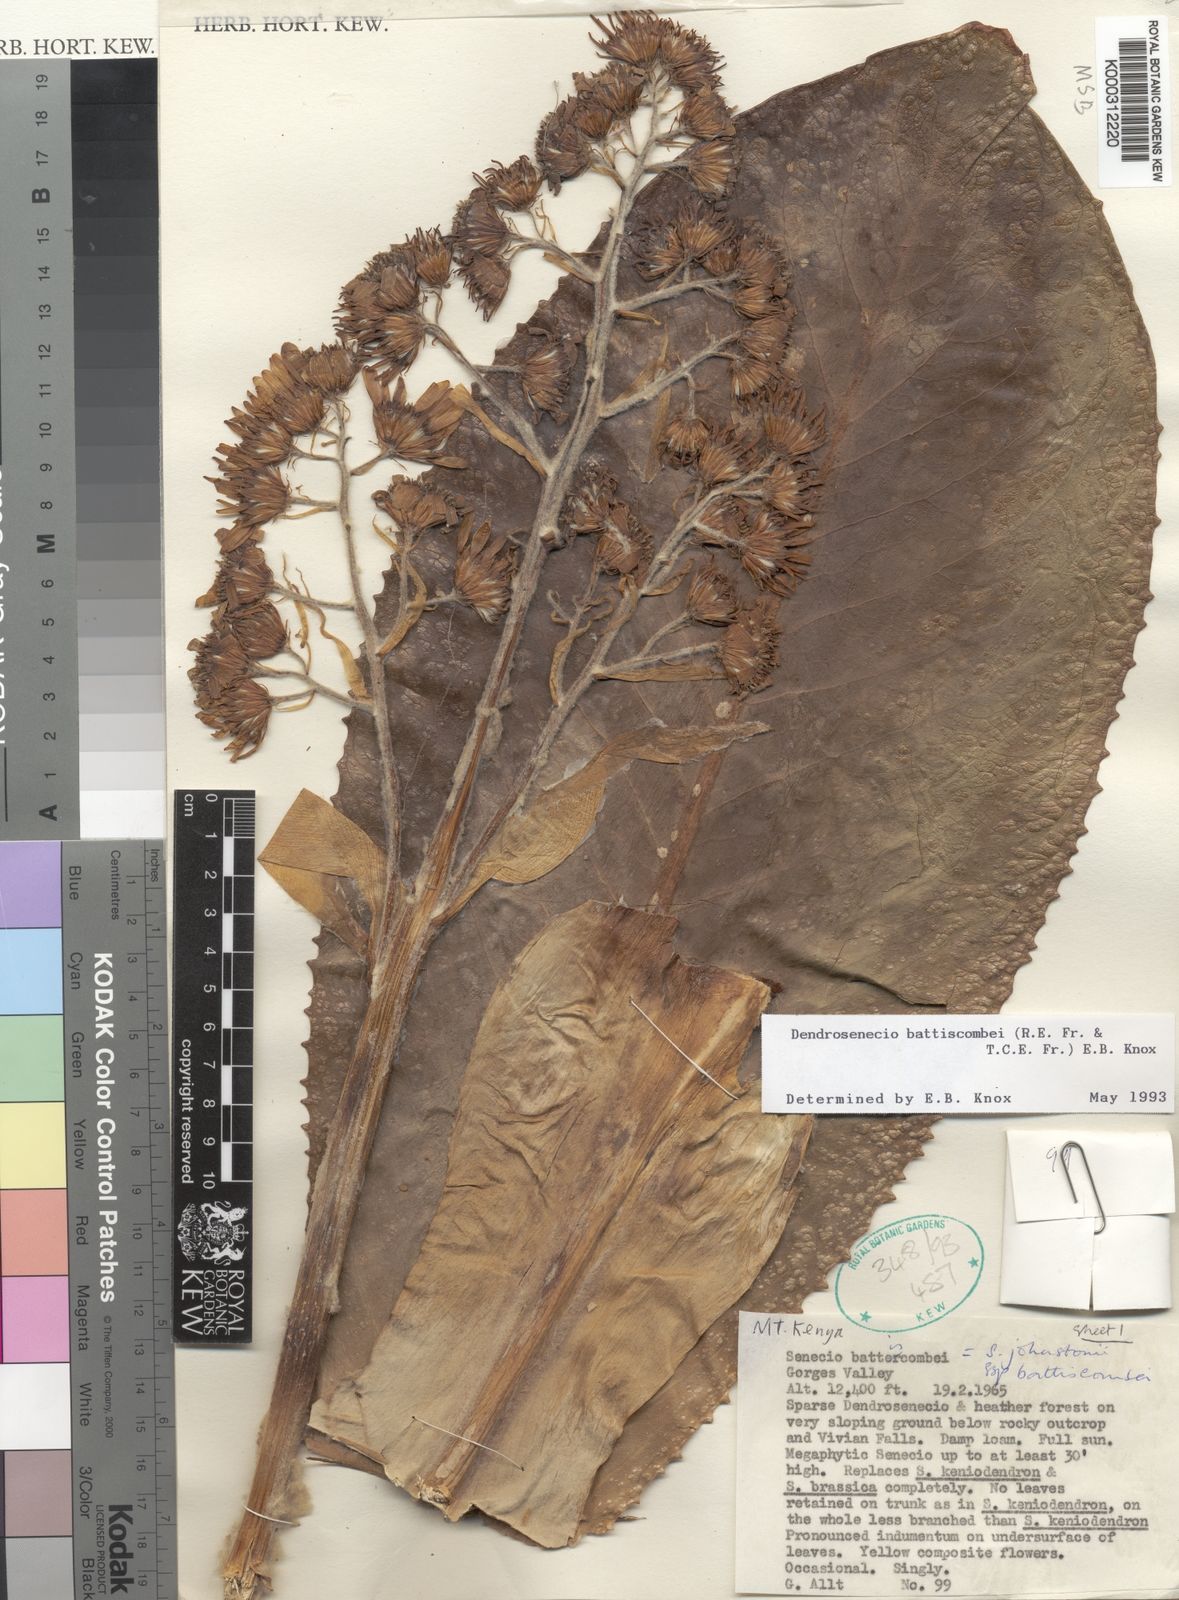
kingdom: Plantae
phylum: Tracheophyta
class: Magnoliopsida
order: Asterales
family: Asteraceae
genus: Dendrosenecio
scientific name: Dendrosenecio battiscombei
